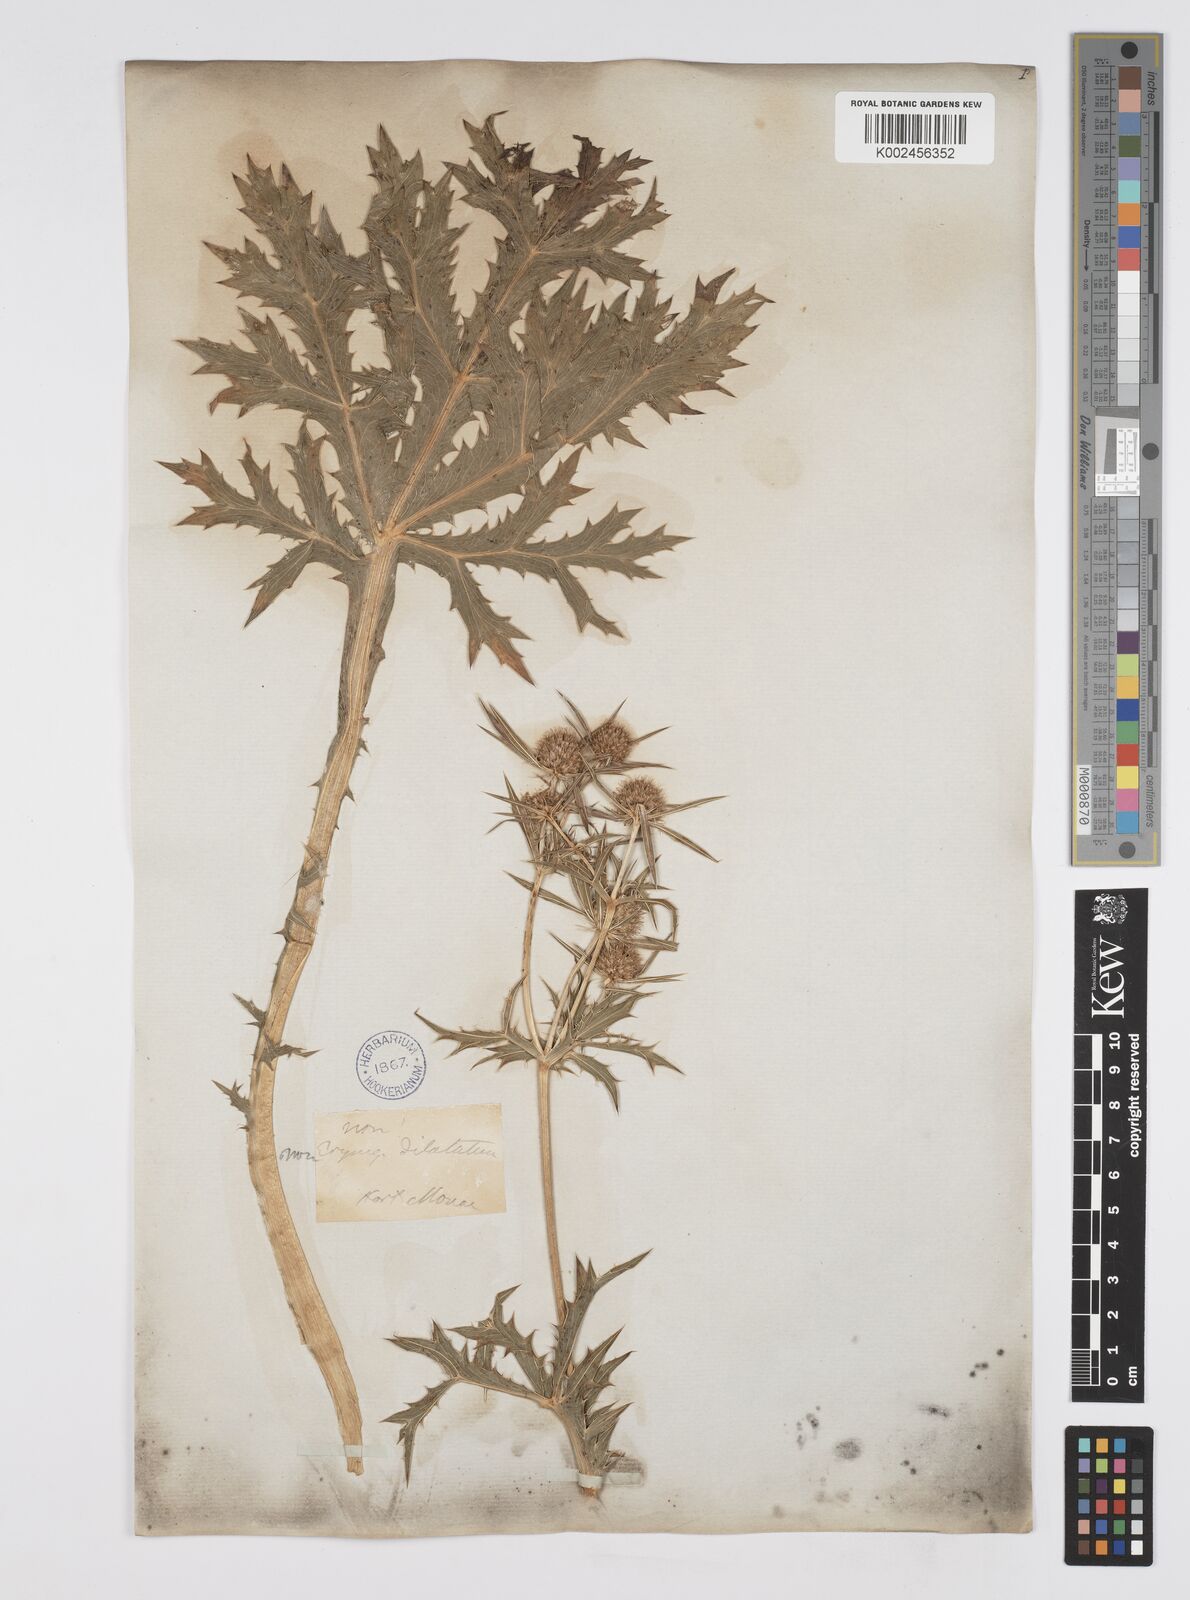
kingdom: Plantae
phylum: Tracheophyta
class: Magnoliopsida
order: Apiales
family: Apiaceae
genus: Eryngium
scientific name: Eryngium campestre
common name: Field eryngo
